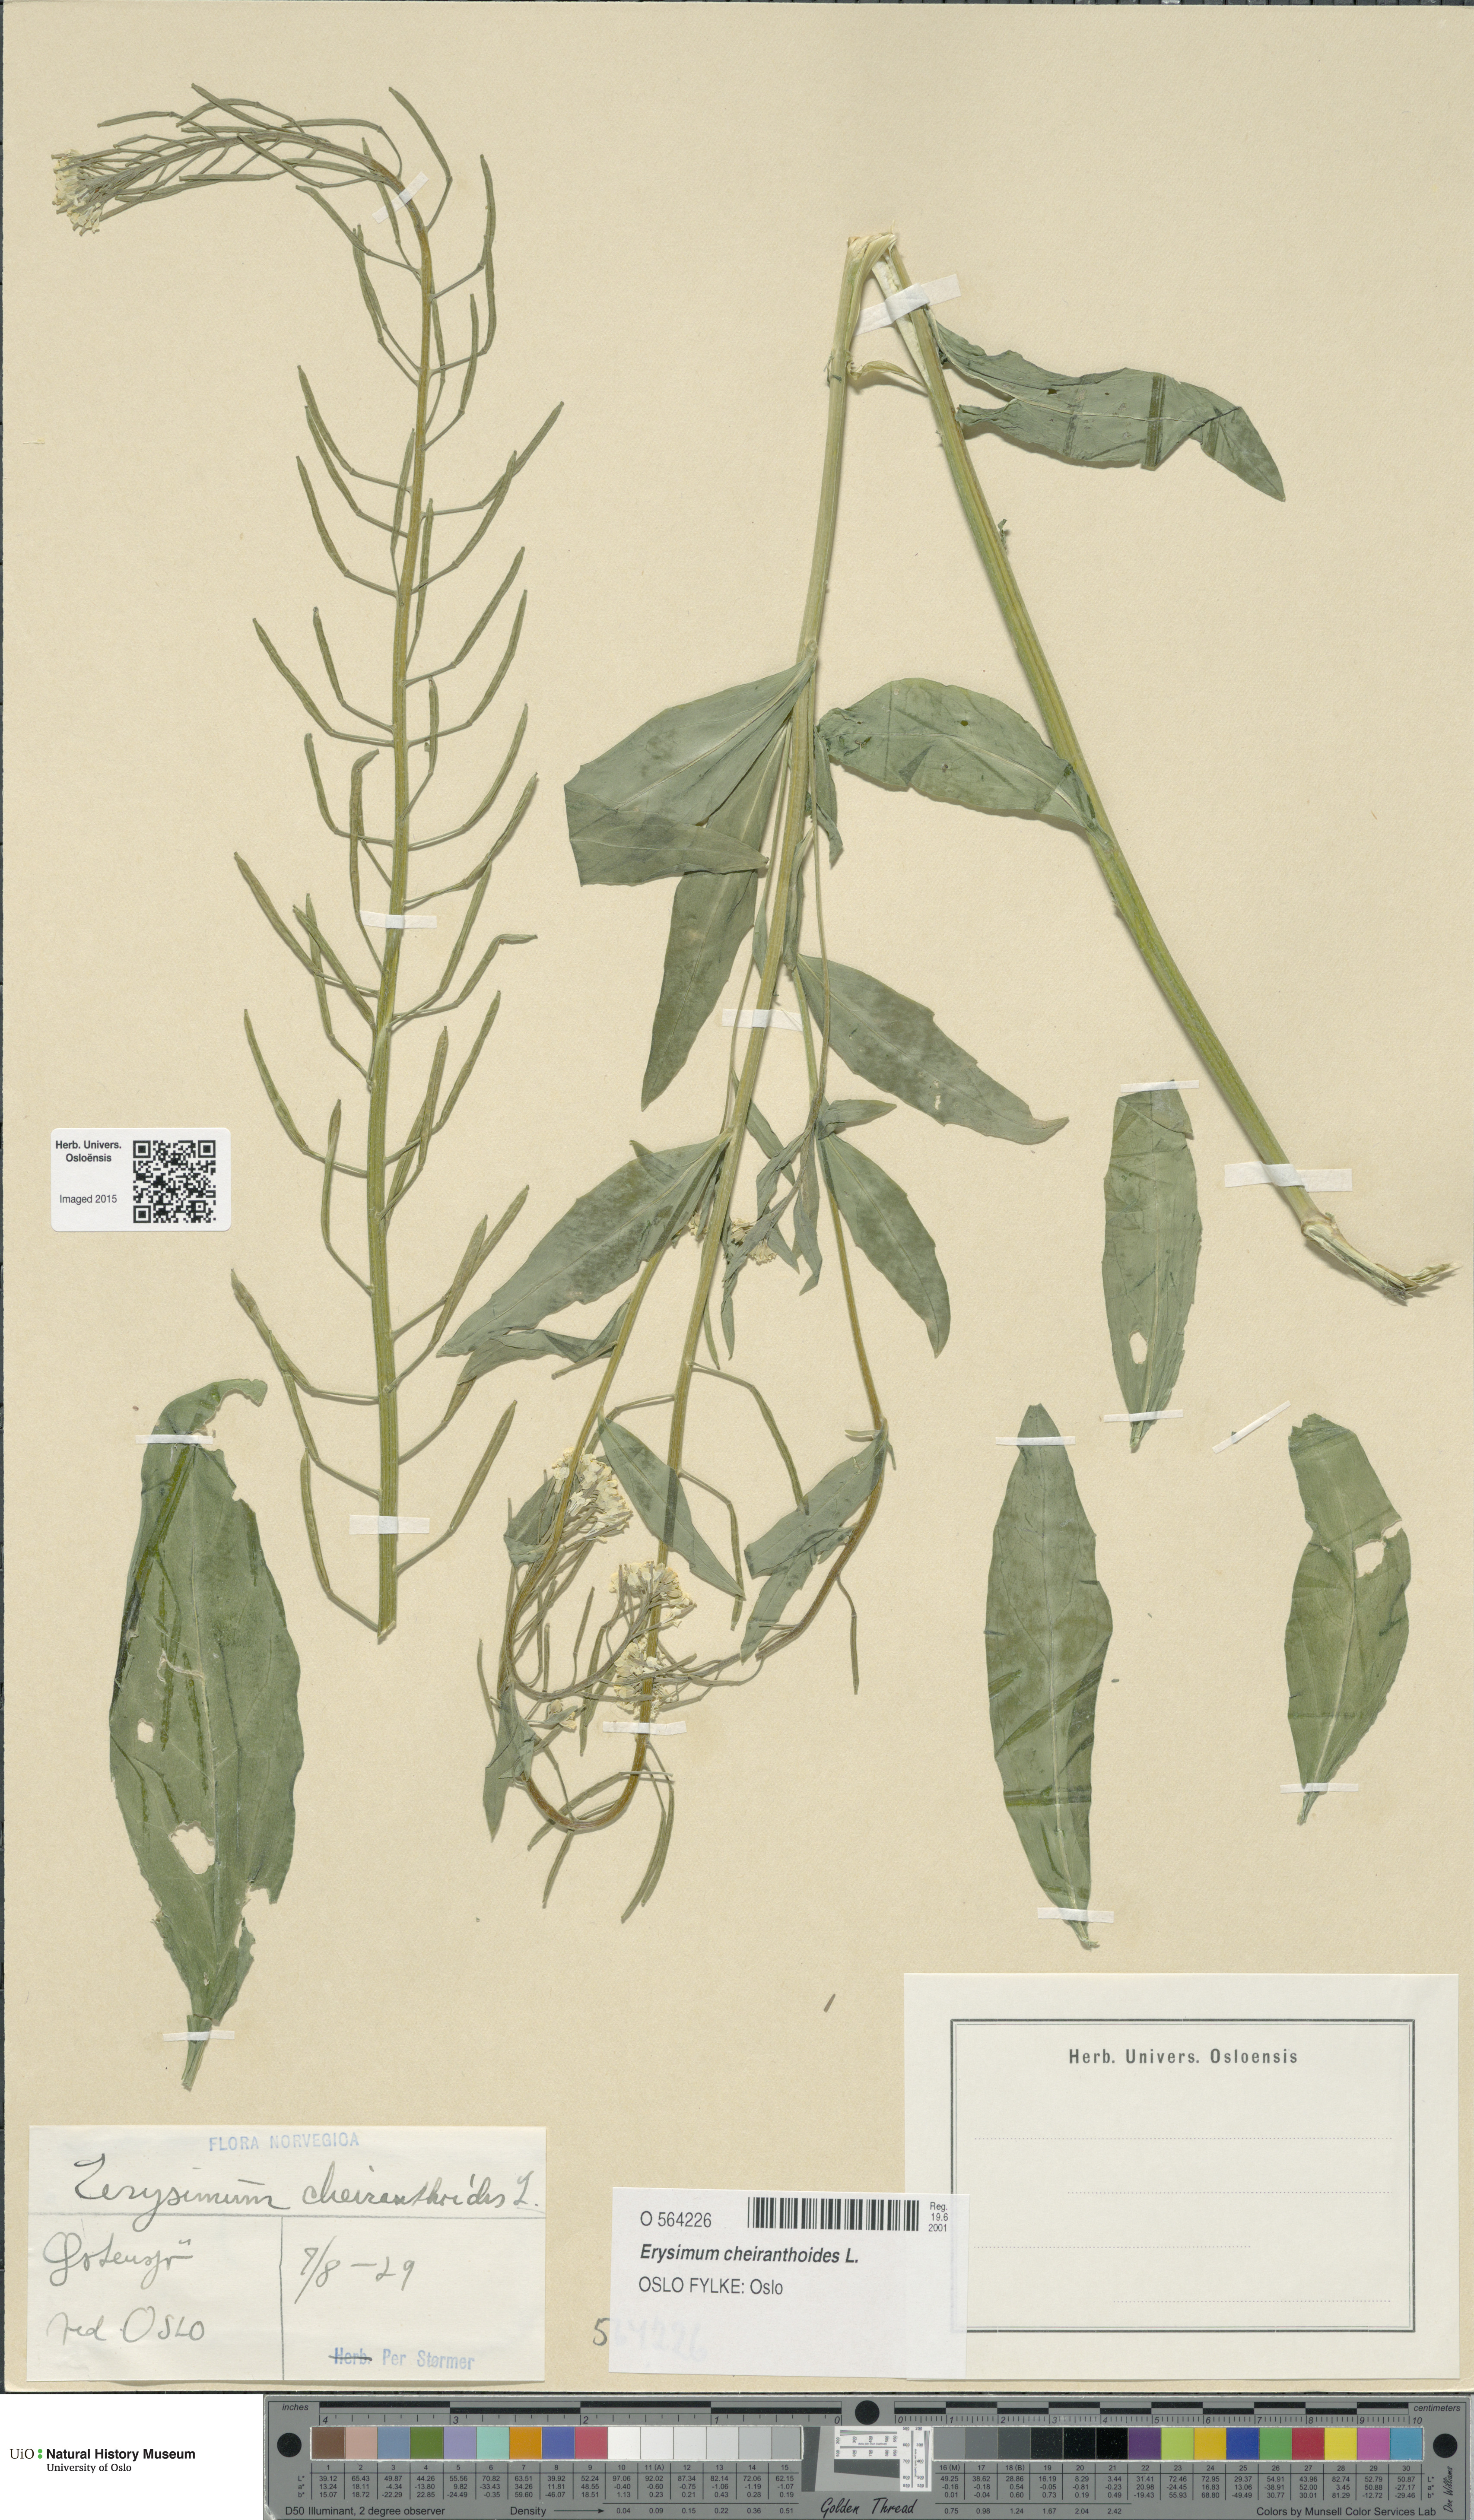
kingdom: Plantae
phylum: Tracheophyta
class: Magnoliopsida
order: Brassicales
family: Brassicaceae
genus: Erysimum
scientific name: Erysimum cheiranthoides
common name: Treacle mustard
